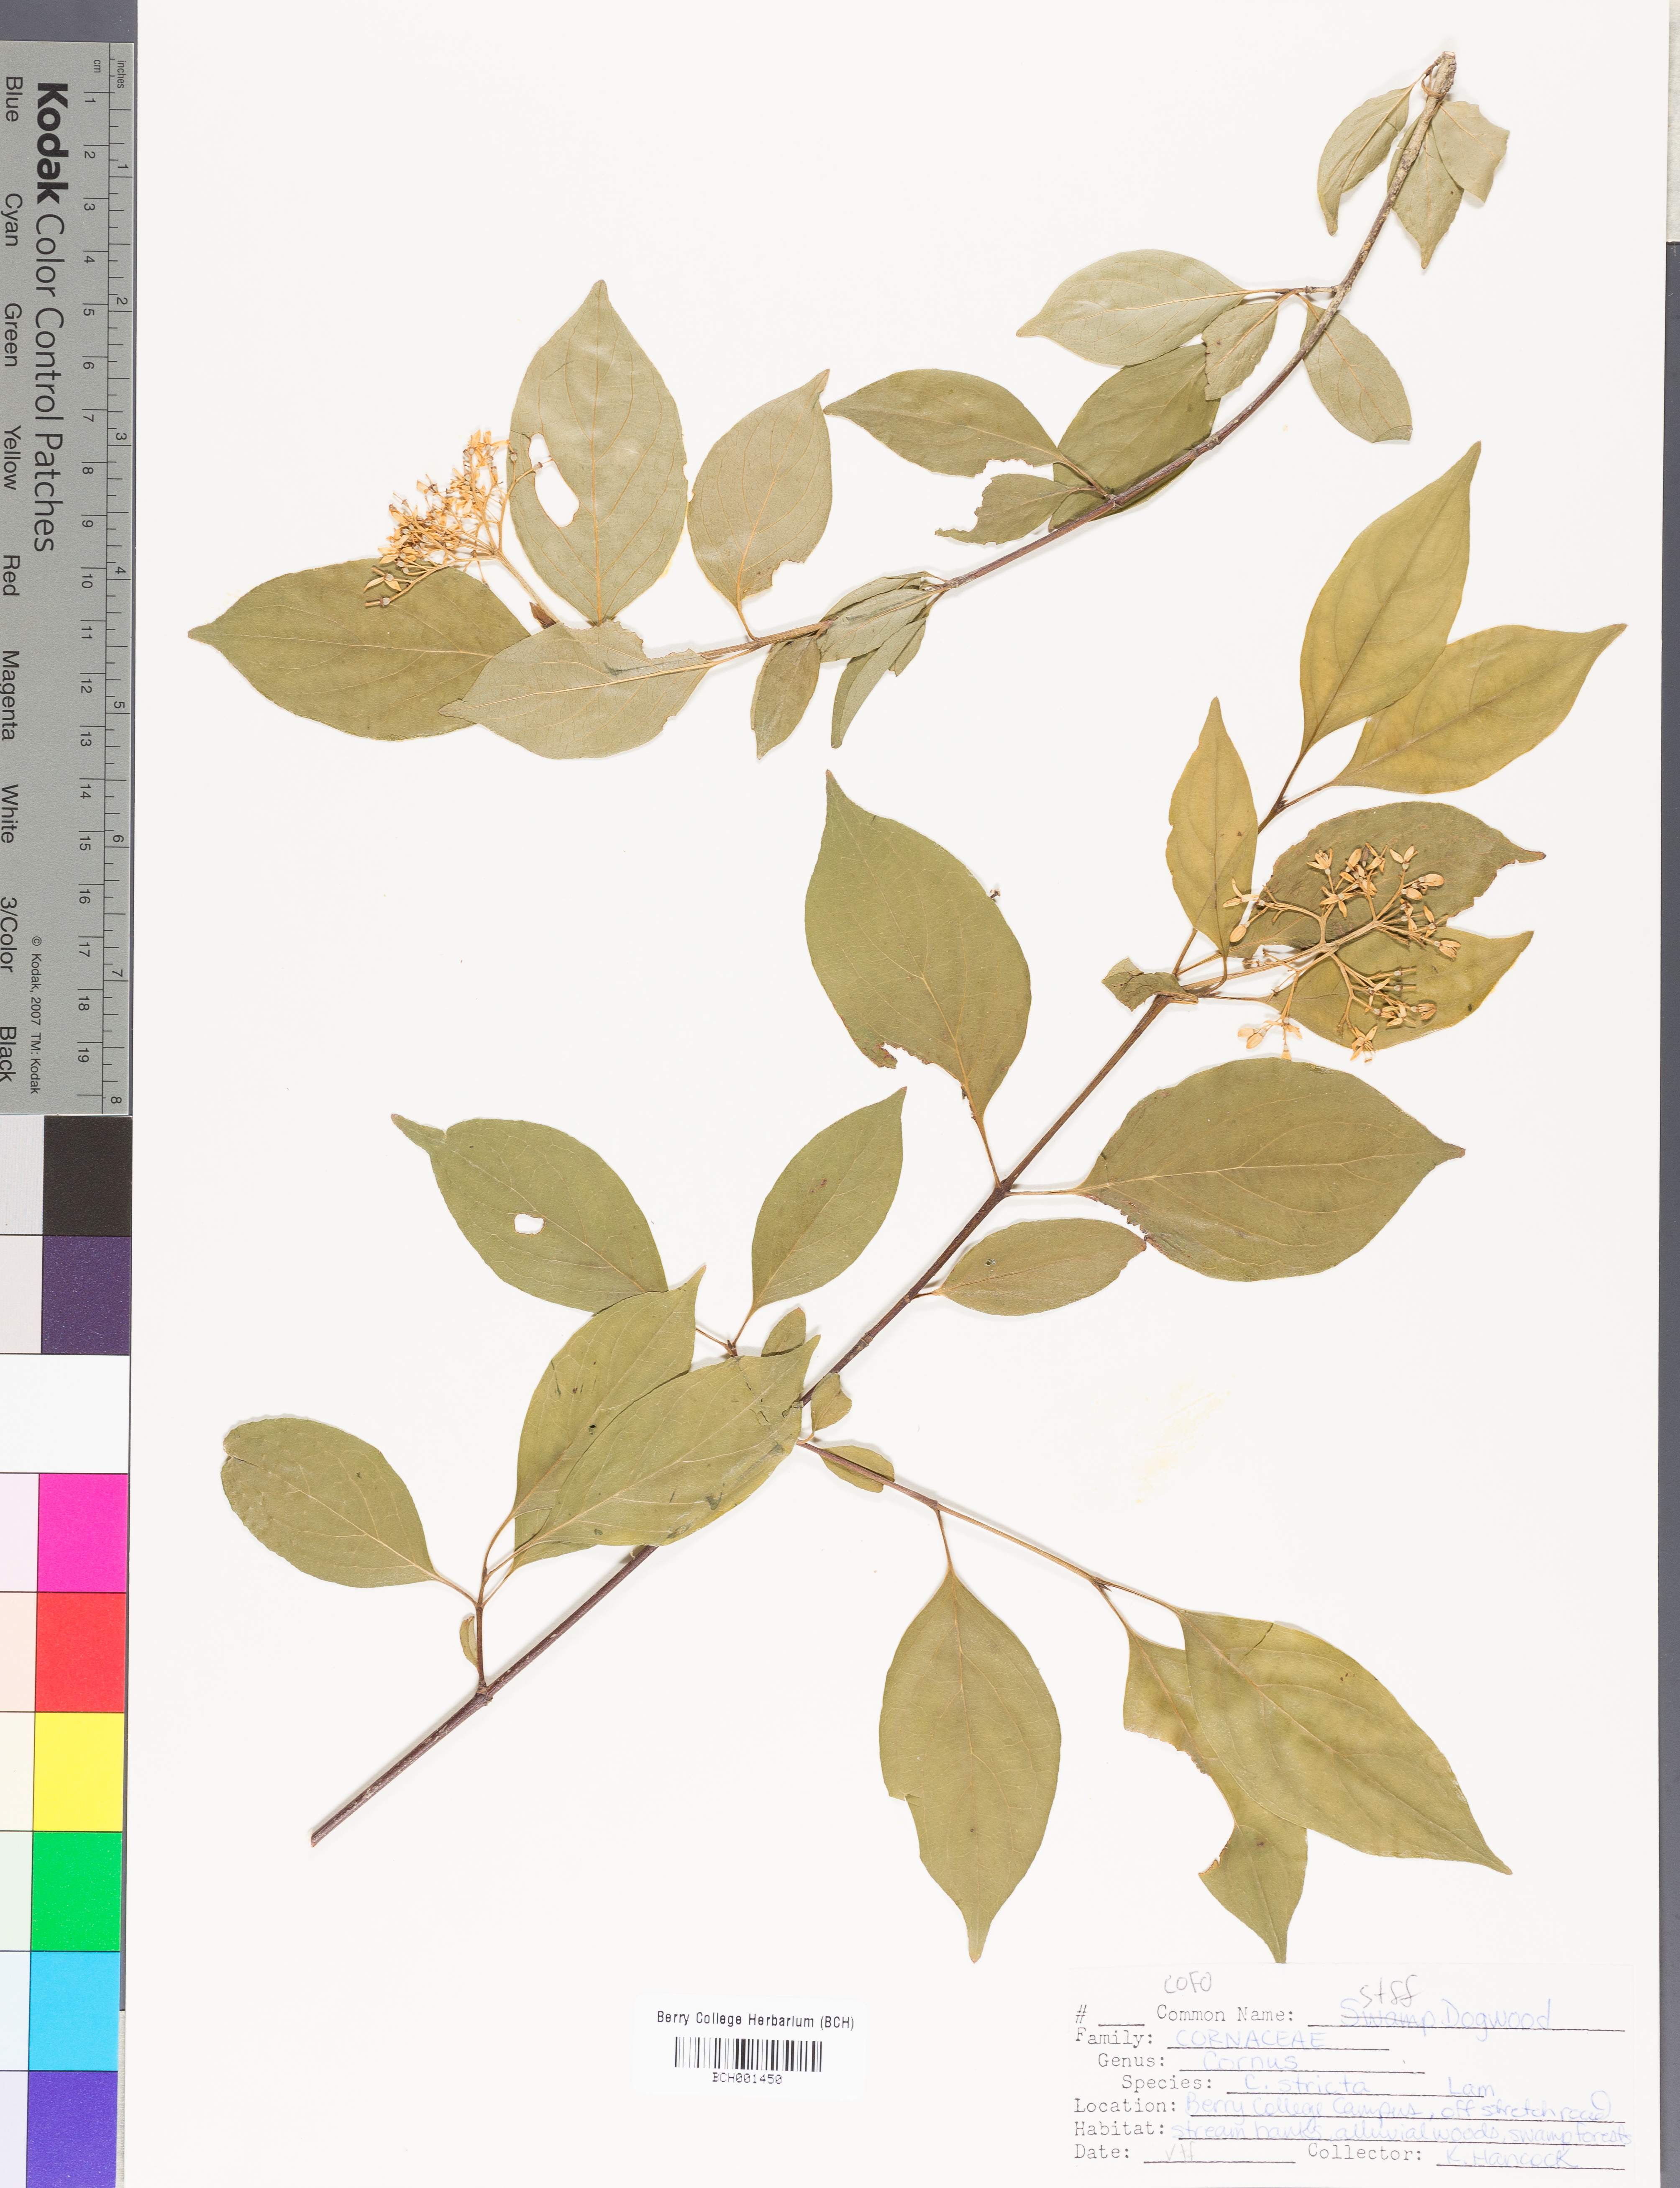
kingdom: Plantae
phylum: Tracheophyta
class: Magnoliopsida
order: Cornales
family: Cornaceae
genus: Cornus
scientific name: Cornus foemina
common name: Swamp dogwood
